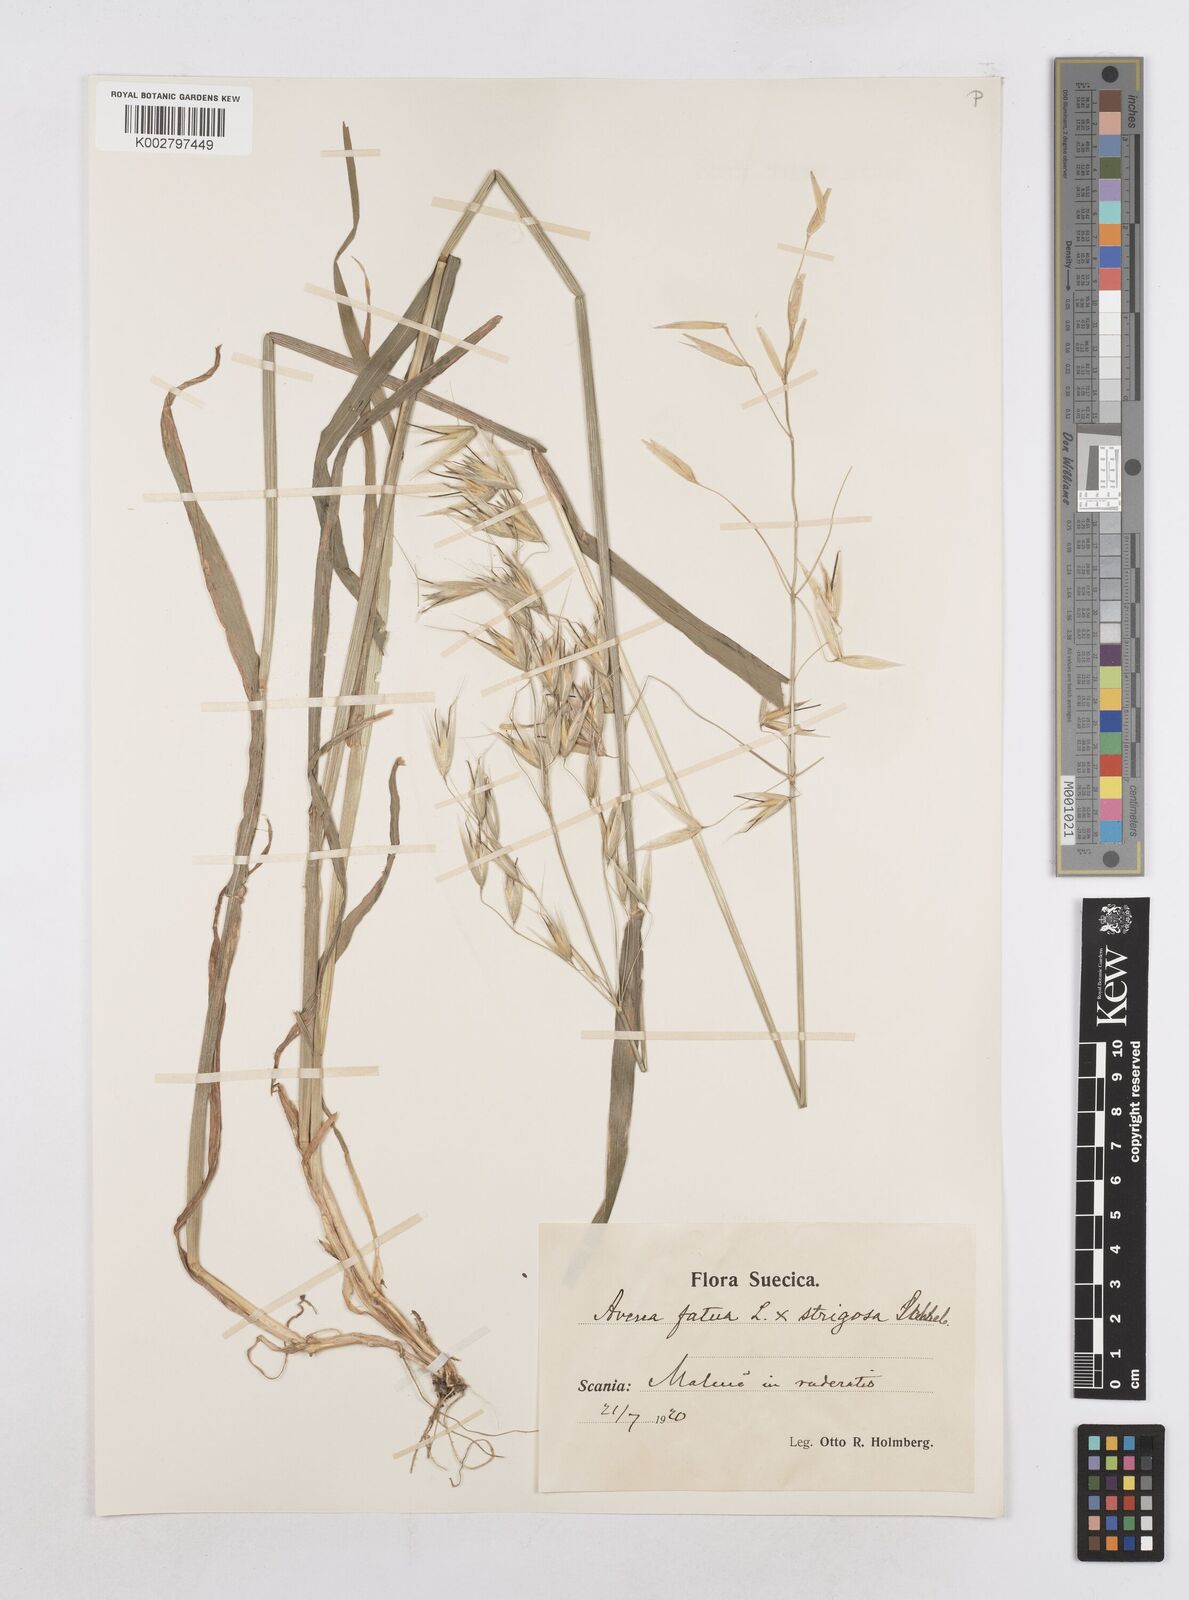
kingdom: Plantae
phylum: Tracheophyta
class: Liliopsida
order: Poales
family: Poaceae
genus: Avena
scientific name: Avena fatua
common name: Wild oat
